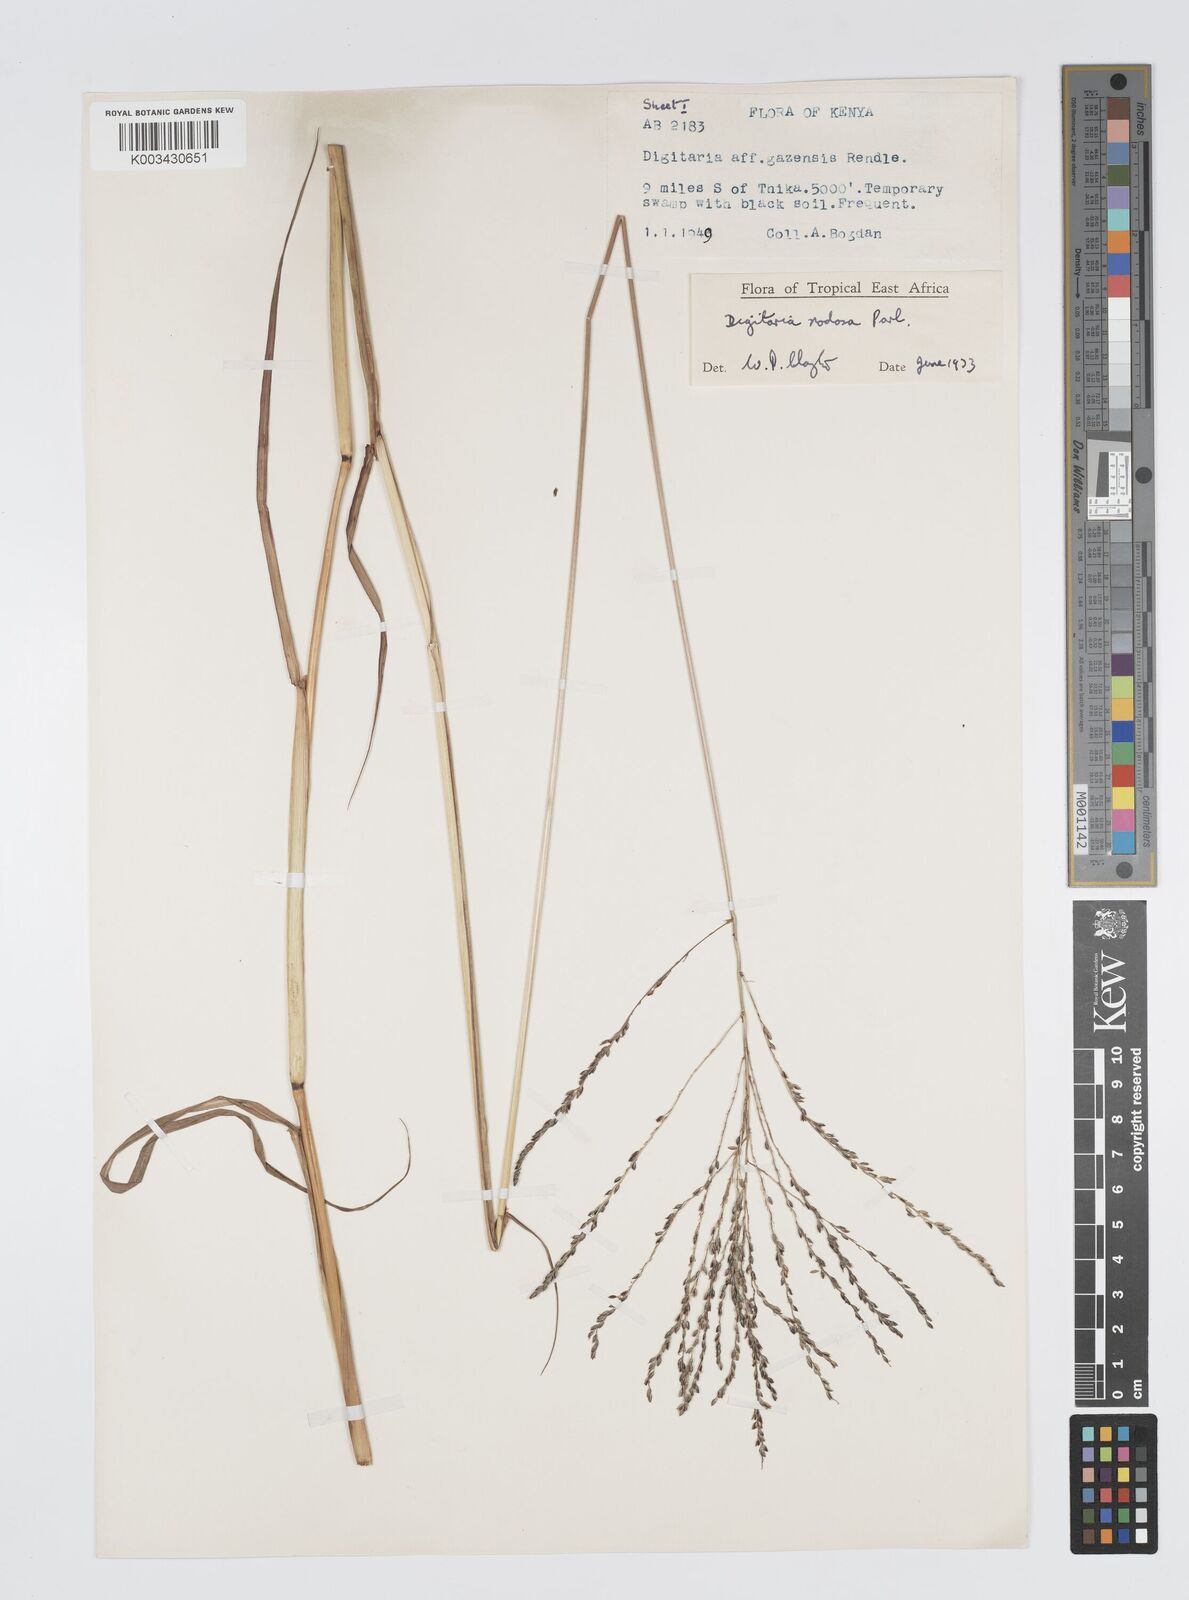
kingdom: Plantae
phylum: Tracheophyta
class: Liliopsida
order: Poales
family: Poaceae
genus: Digitaria
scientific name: Digitaria nodosa
